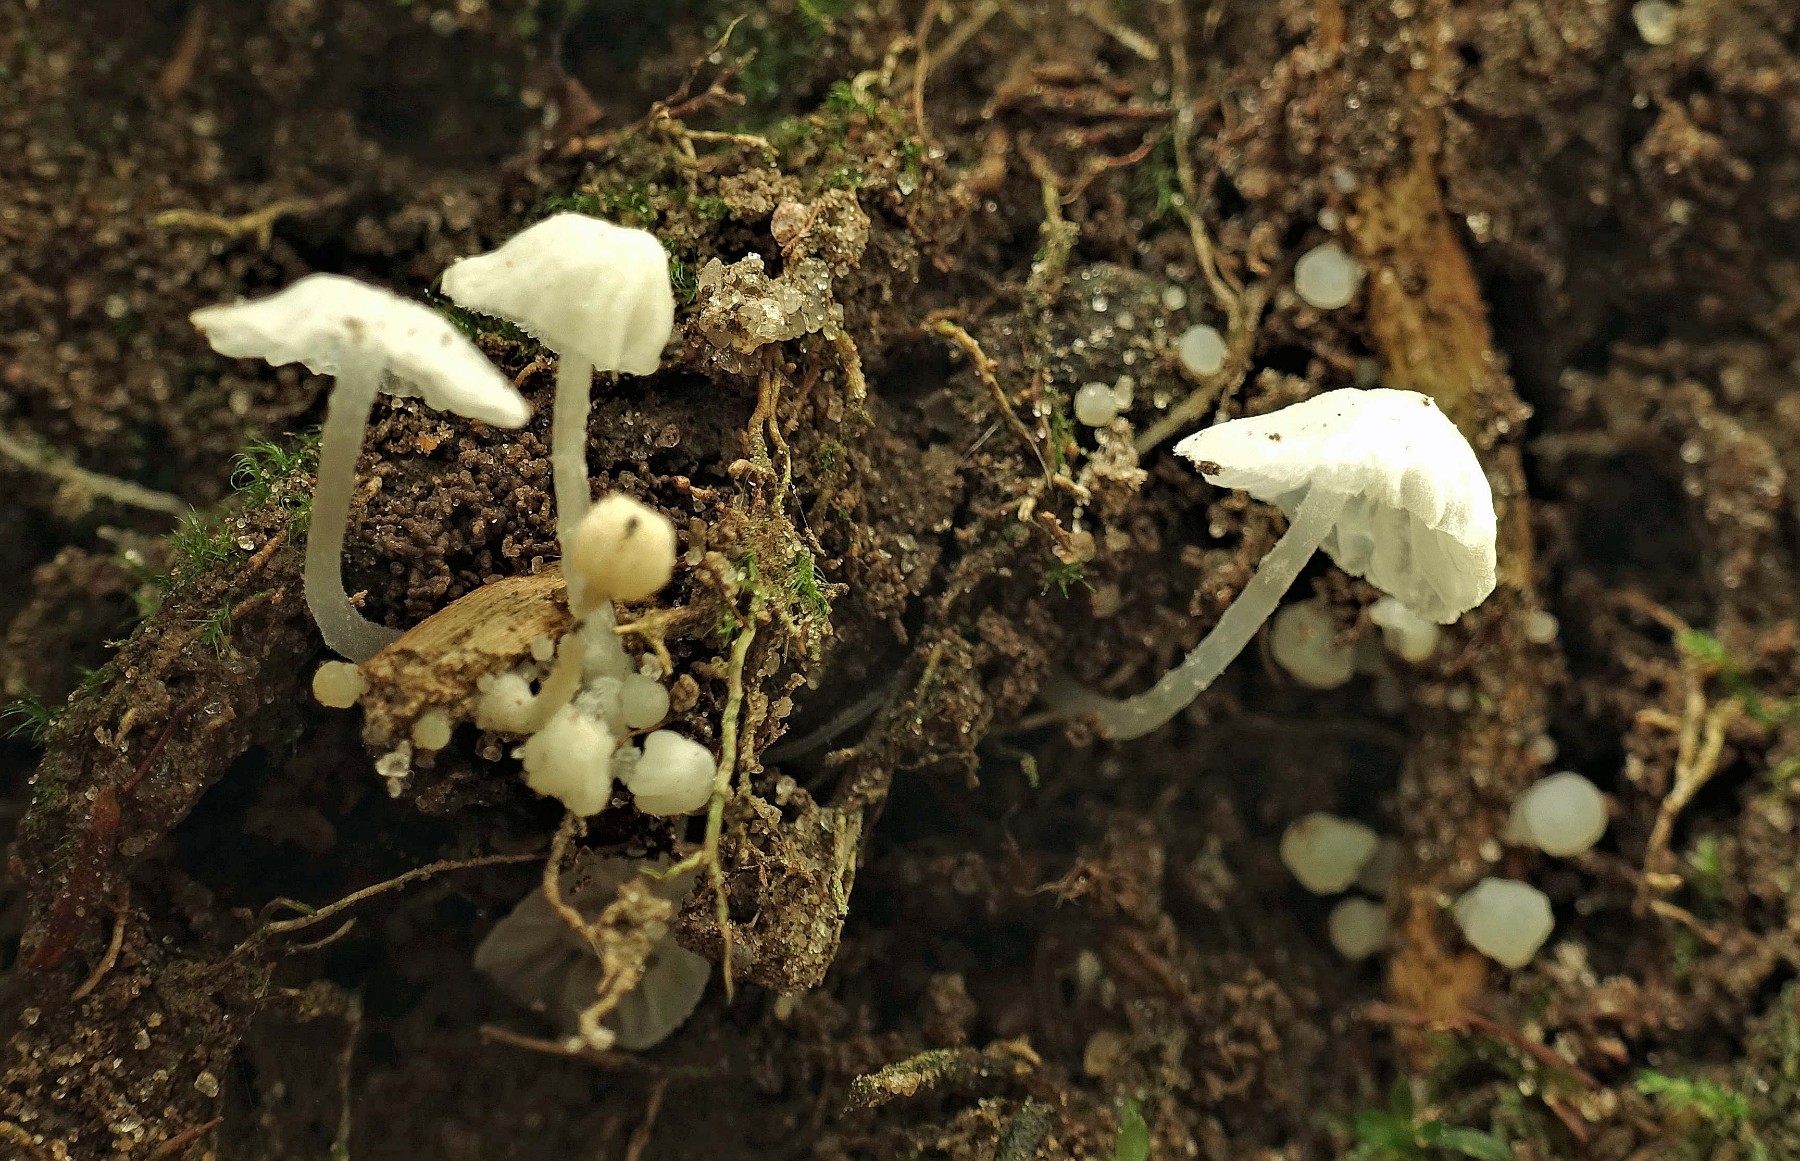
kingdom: Fungi
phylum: Basidiomycota
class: Agaricomycetes
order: Agaricales
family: Tricholomataceae
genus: Delicatula
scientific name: Delicatula integrella
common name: slørhuesvamp
